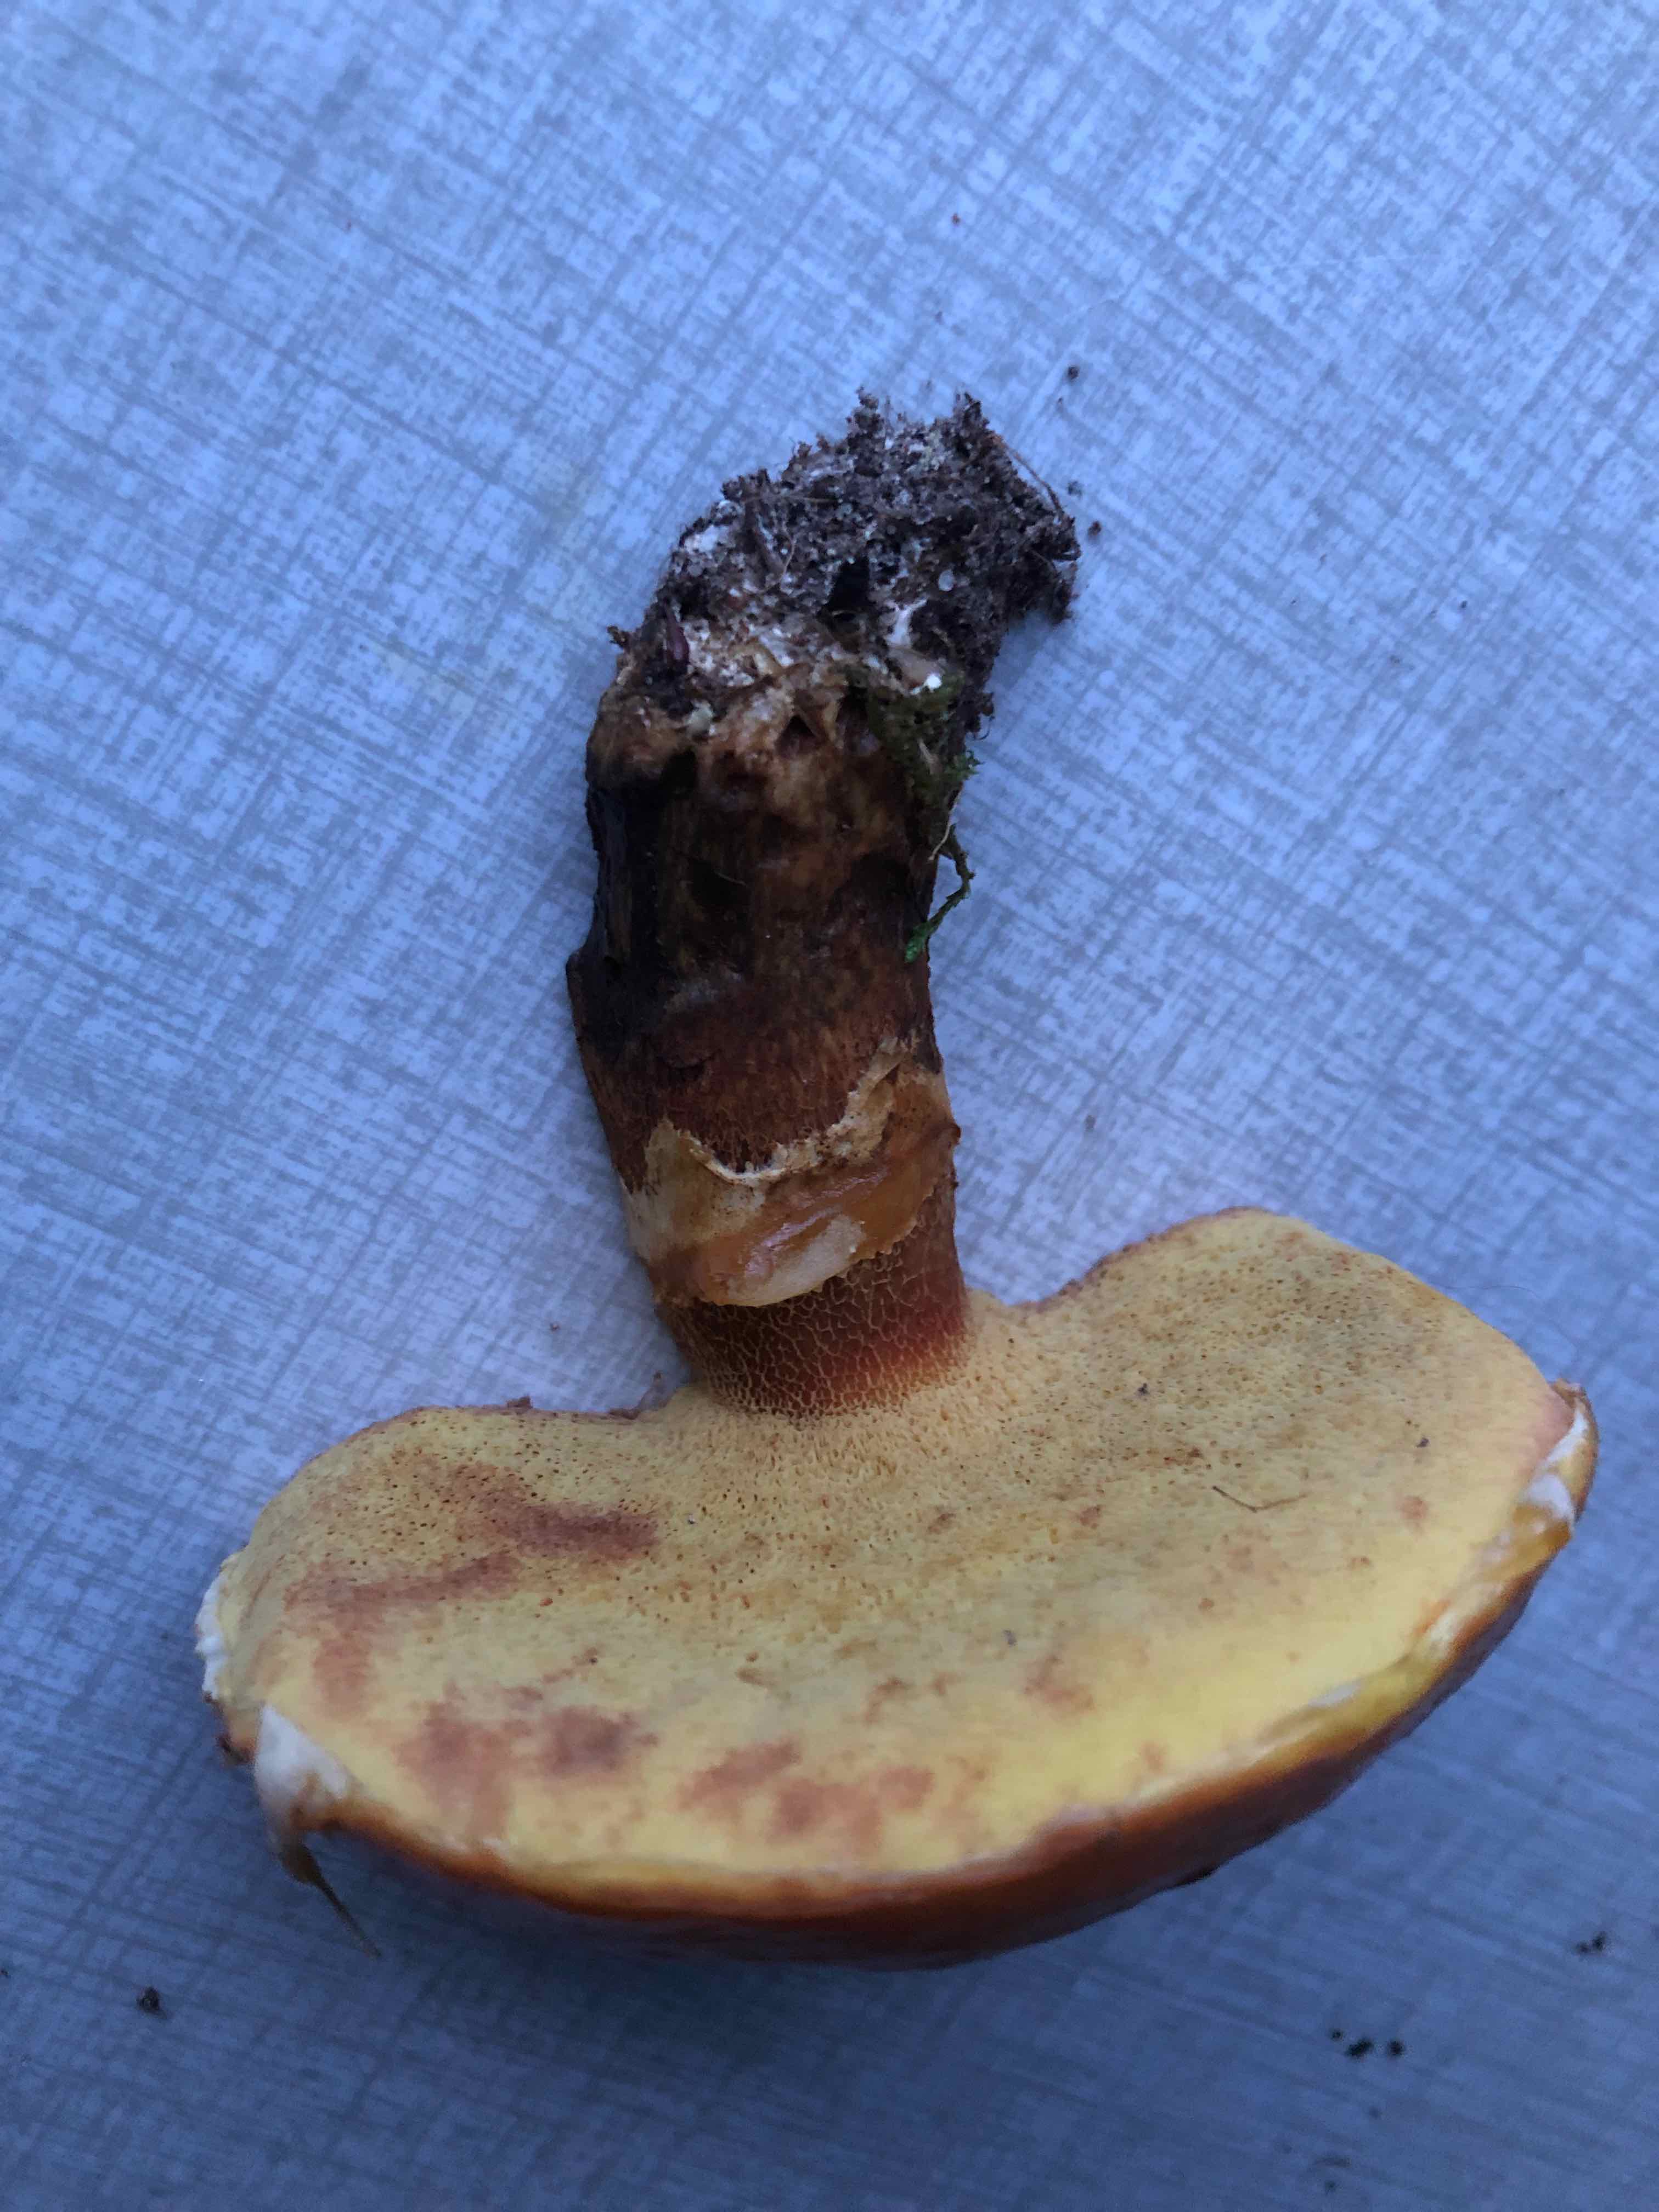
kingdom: Fungi
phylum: Basidiomycota
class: Agaricomycetes
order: Boletales
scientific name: Boletales
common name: rørhatordenen
